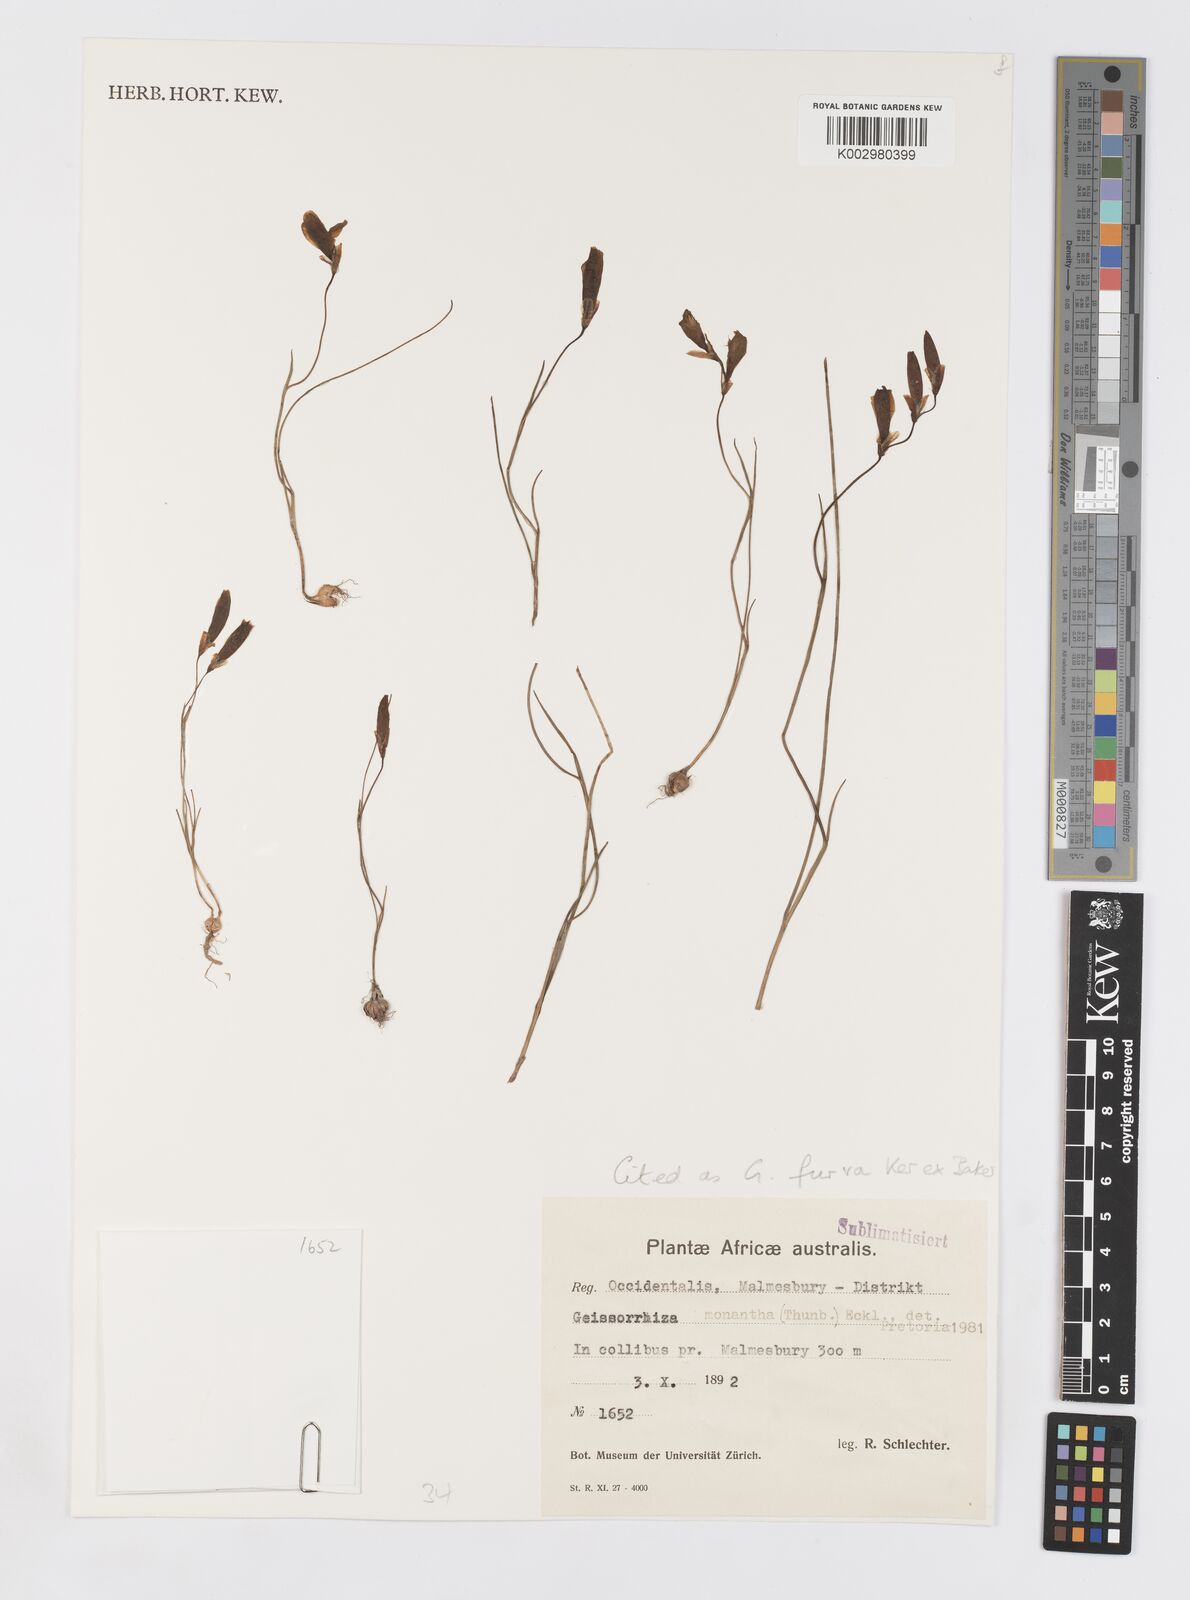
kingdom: Plantae
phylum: Tracheophyta
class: Liliopsida
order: Asparagales
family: Iridaceae
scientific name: Iridaceae
